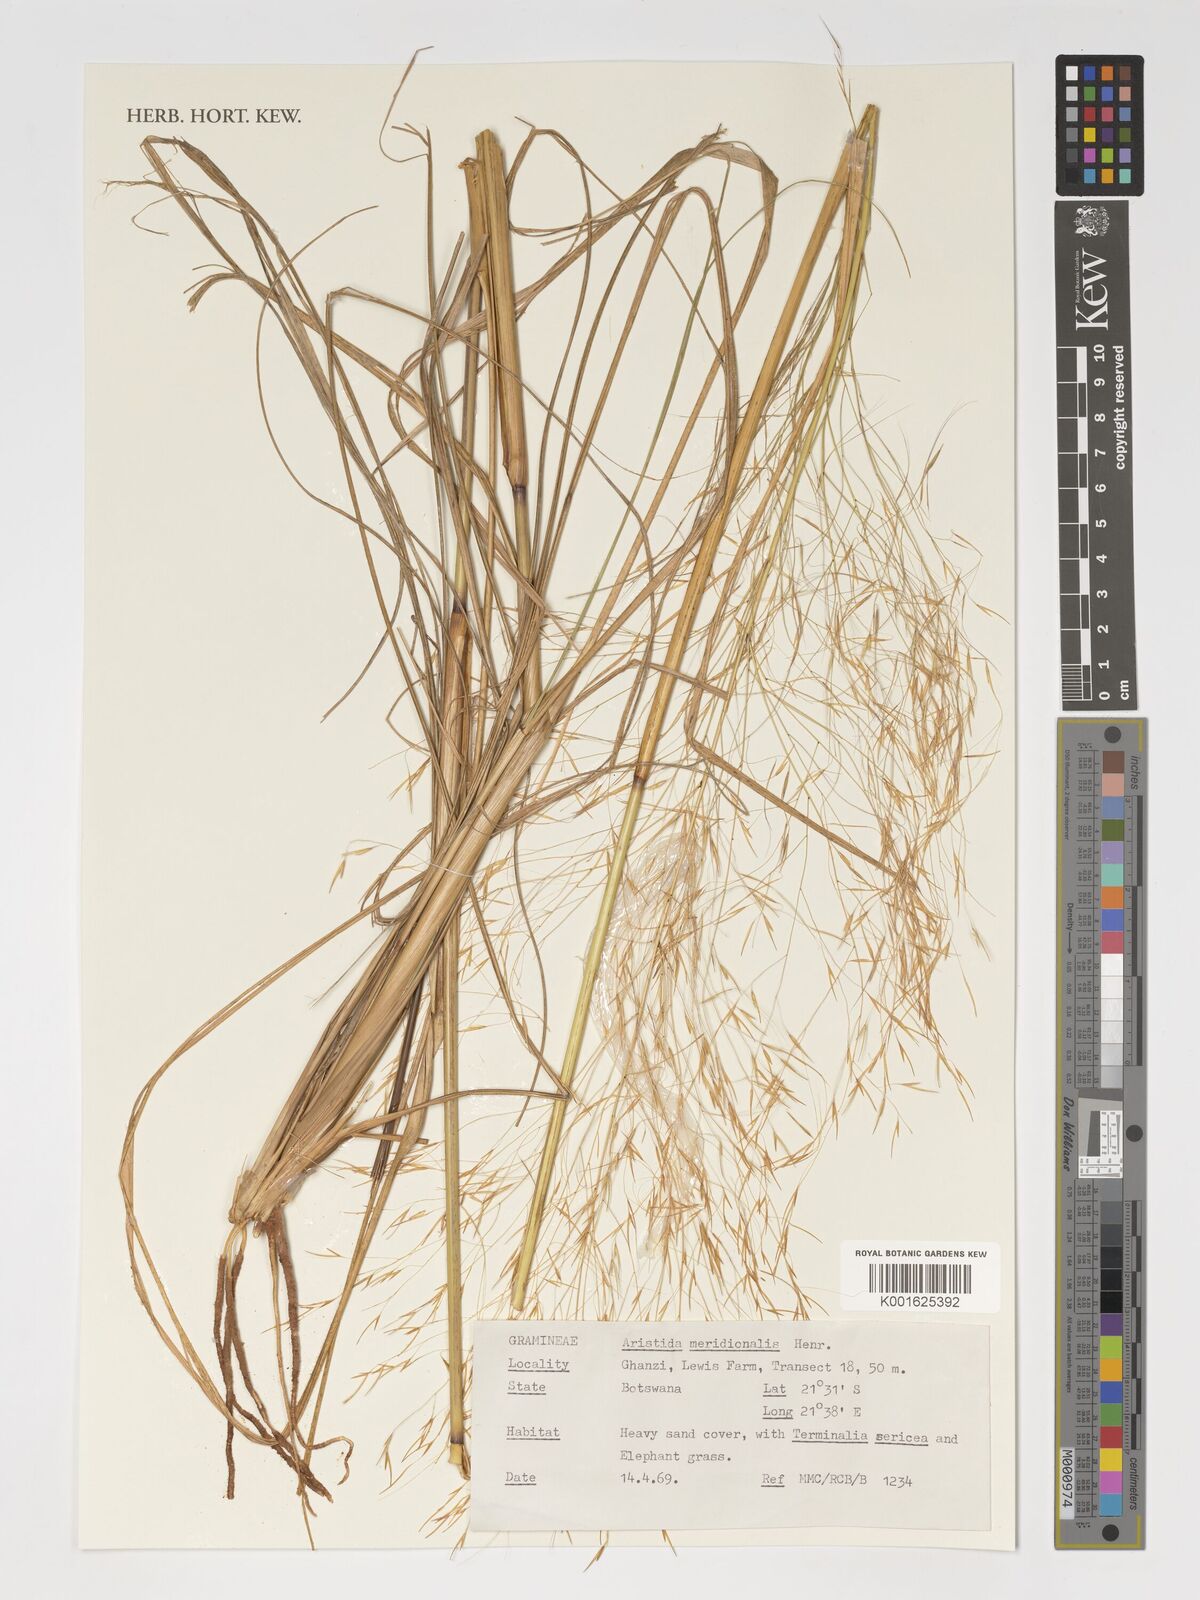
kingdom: Plantae
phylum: Tracheophyta
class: Liliopsida
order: Poales
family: Poaceae
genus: Aristida
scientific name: Aristida meridionalis
